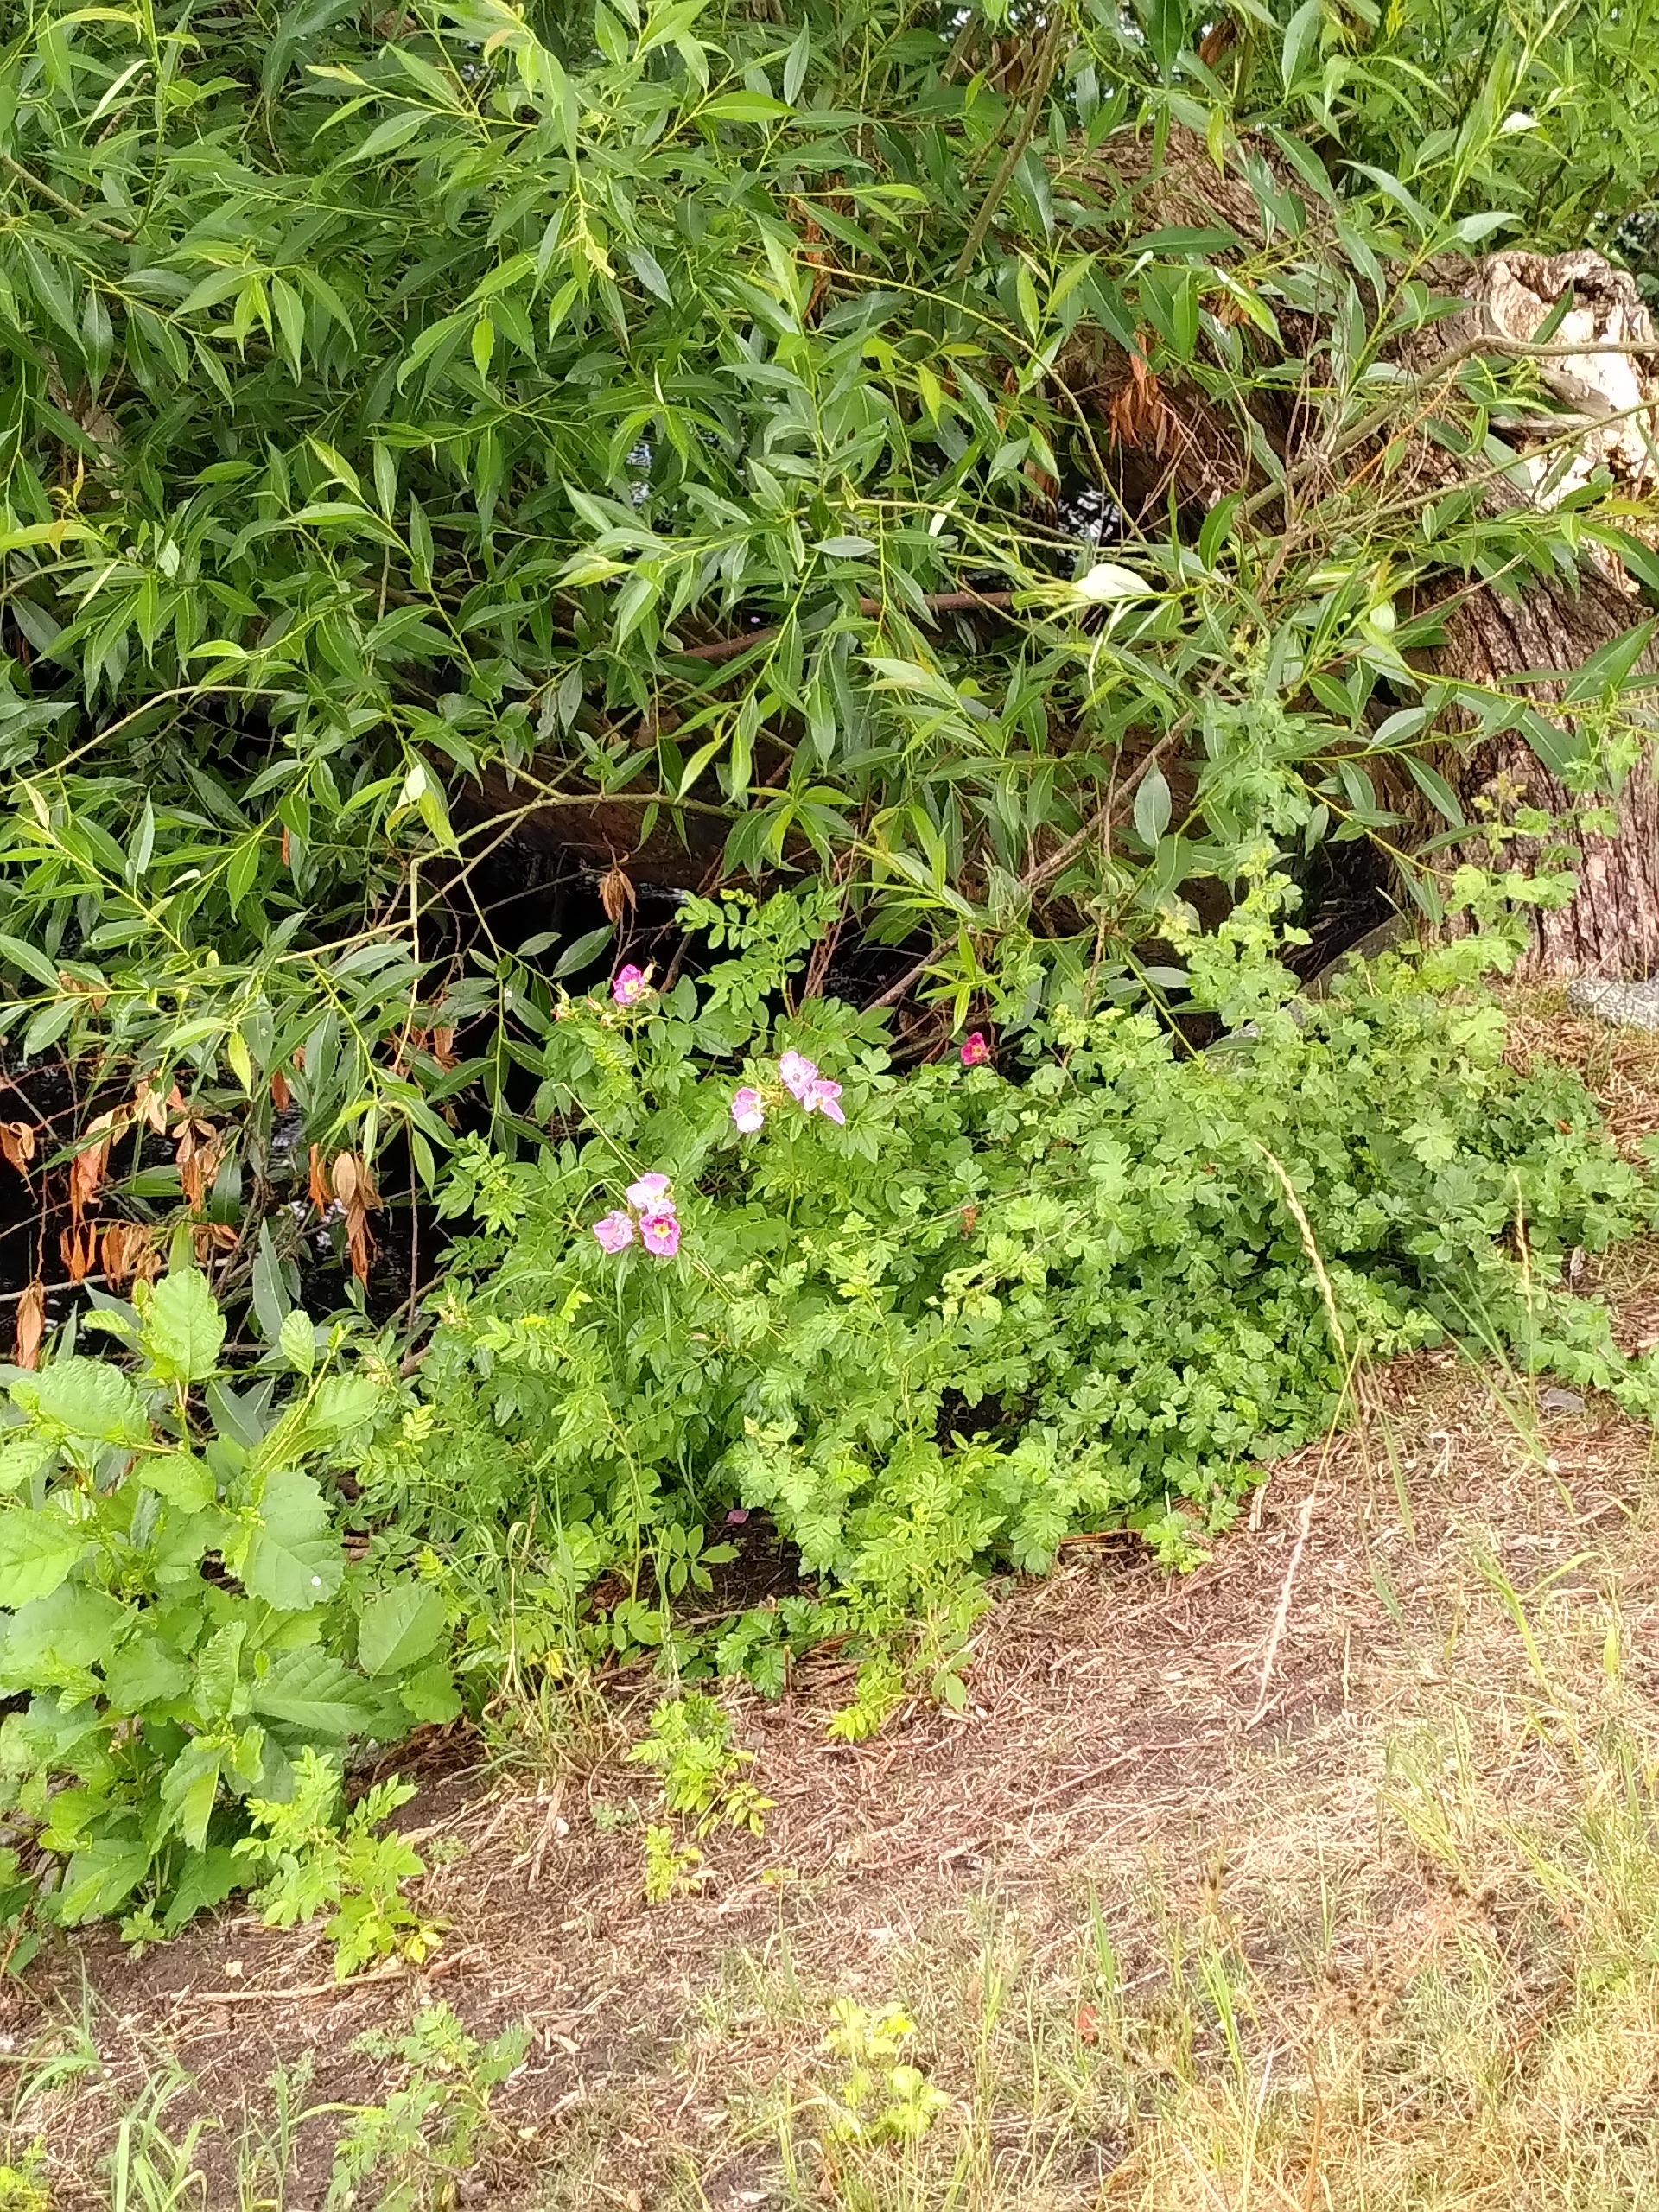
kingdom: Plantae
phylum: Tracheophyta
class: Magnoliopsida
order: Rosales
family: Rosaceae
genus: Rosa
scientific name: Rosa rugosa
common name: Rynket rose
